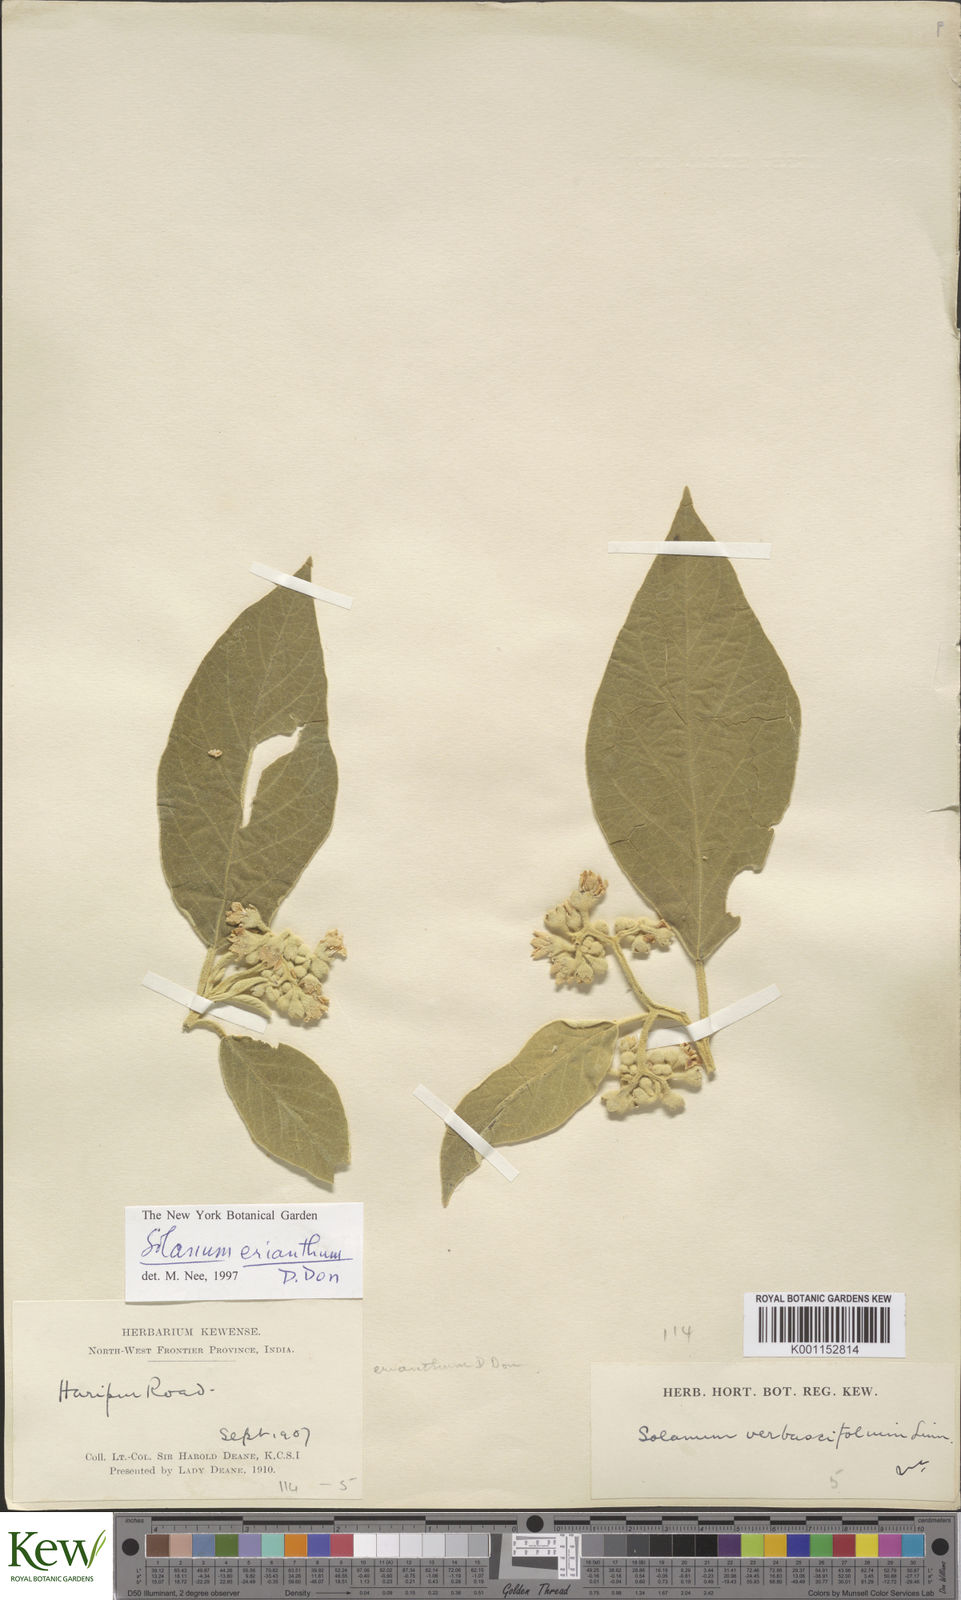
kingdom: Plantae
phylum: Tracheophyta
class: Magnoliopsida
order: Solanales
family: Solanaceae
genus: Solanum
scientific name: Solanum erianthum
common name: Tobacco-tree
